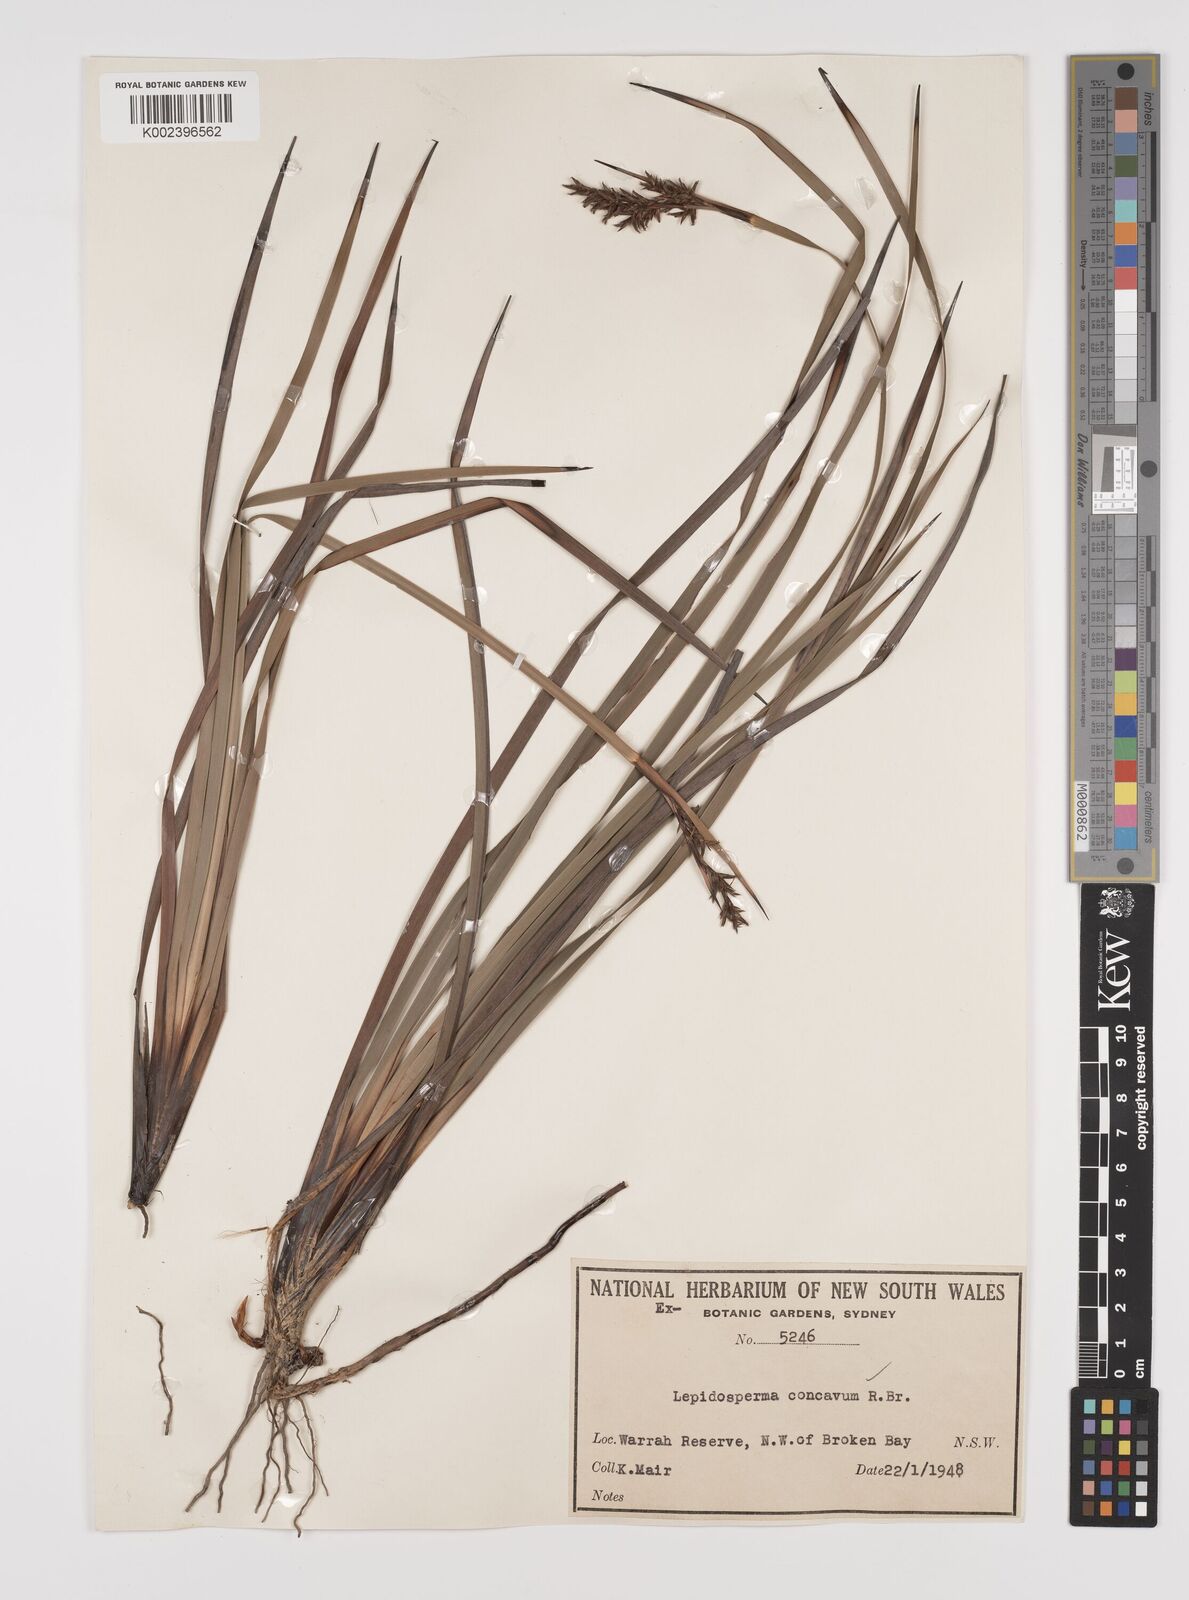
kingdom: Plantae
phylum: Tracheophyta
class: Liliopsida
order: Poales
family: Cyperaceae
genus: Lepidosperma
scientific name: Lepidosperma concavum
